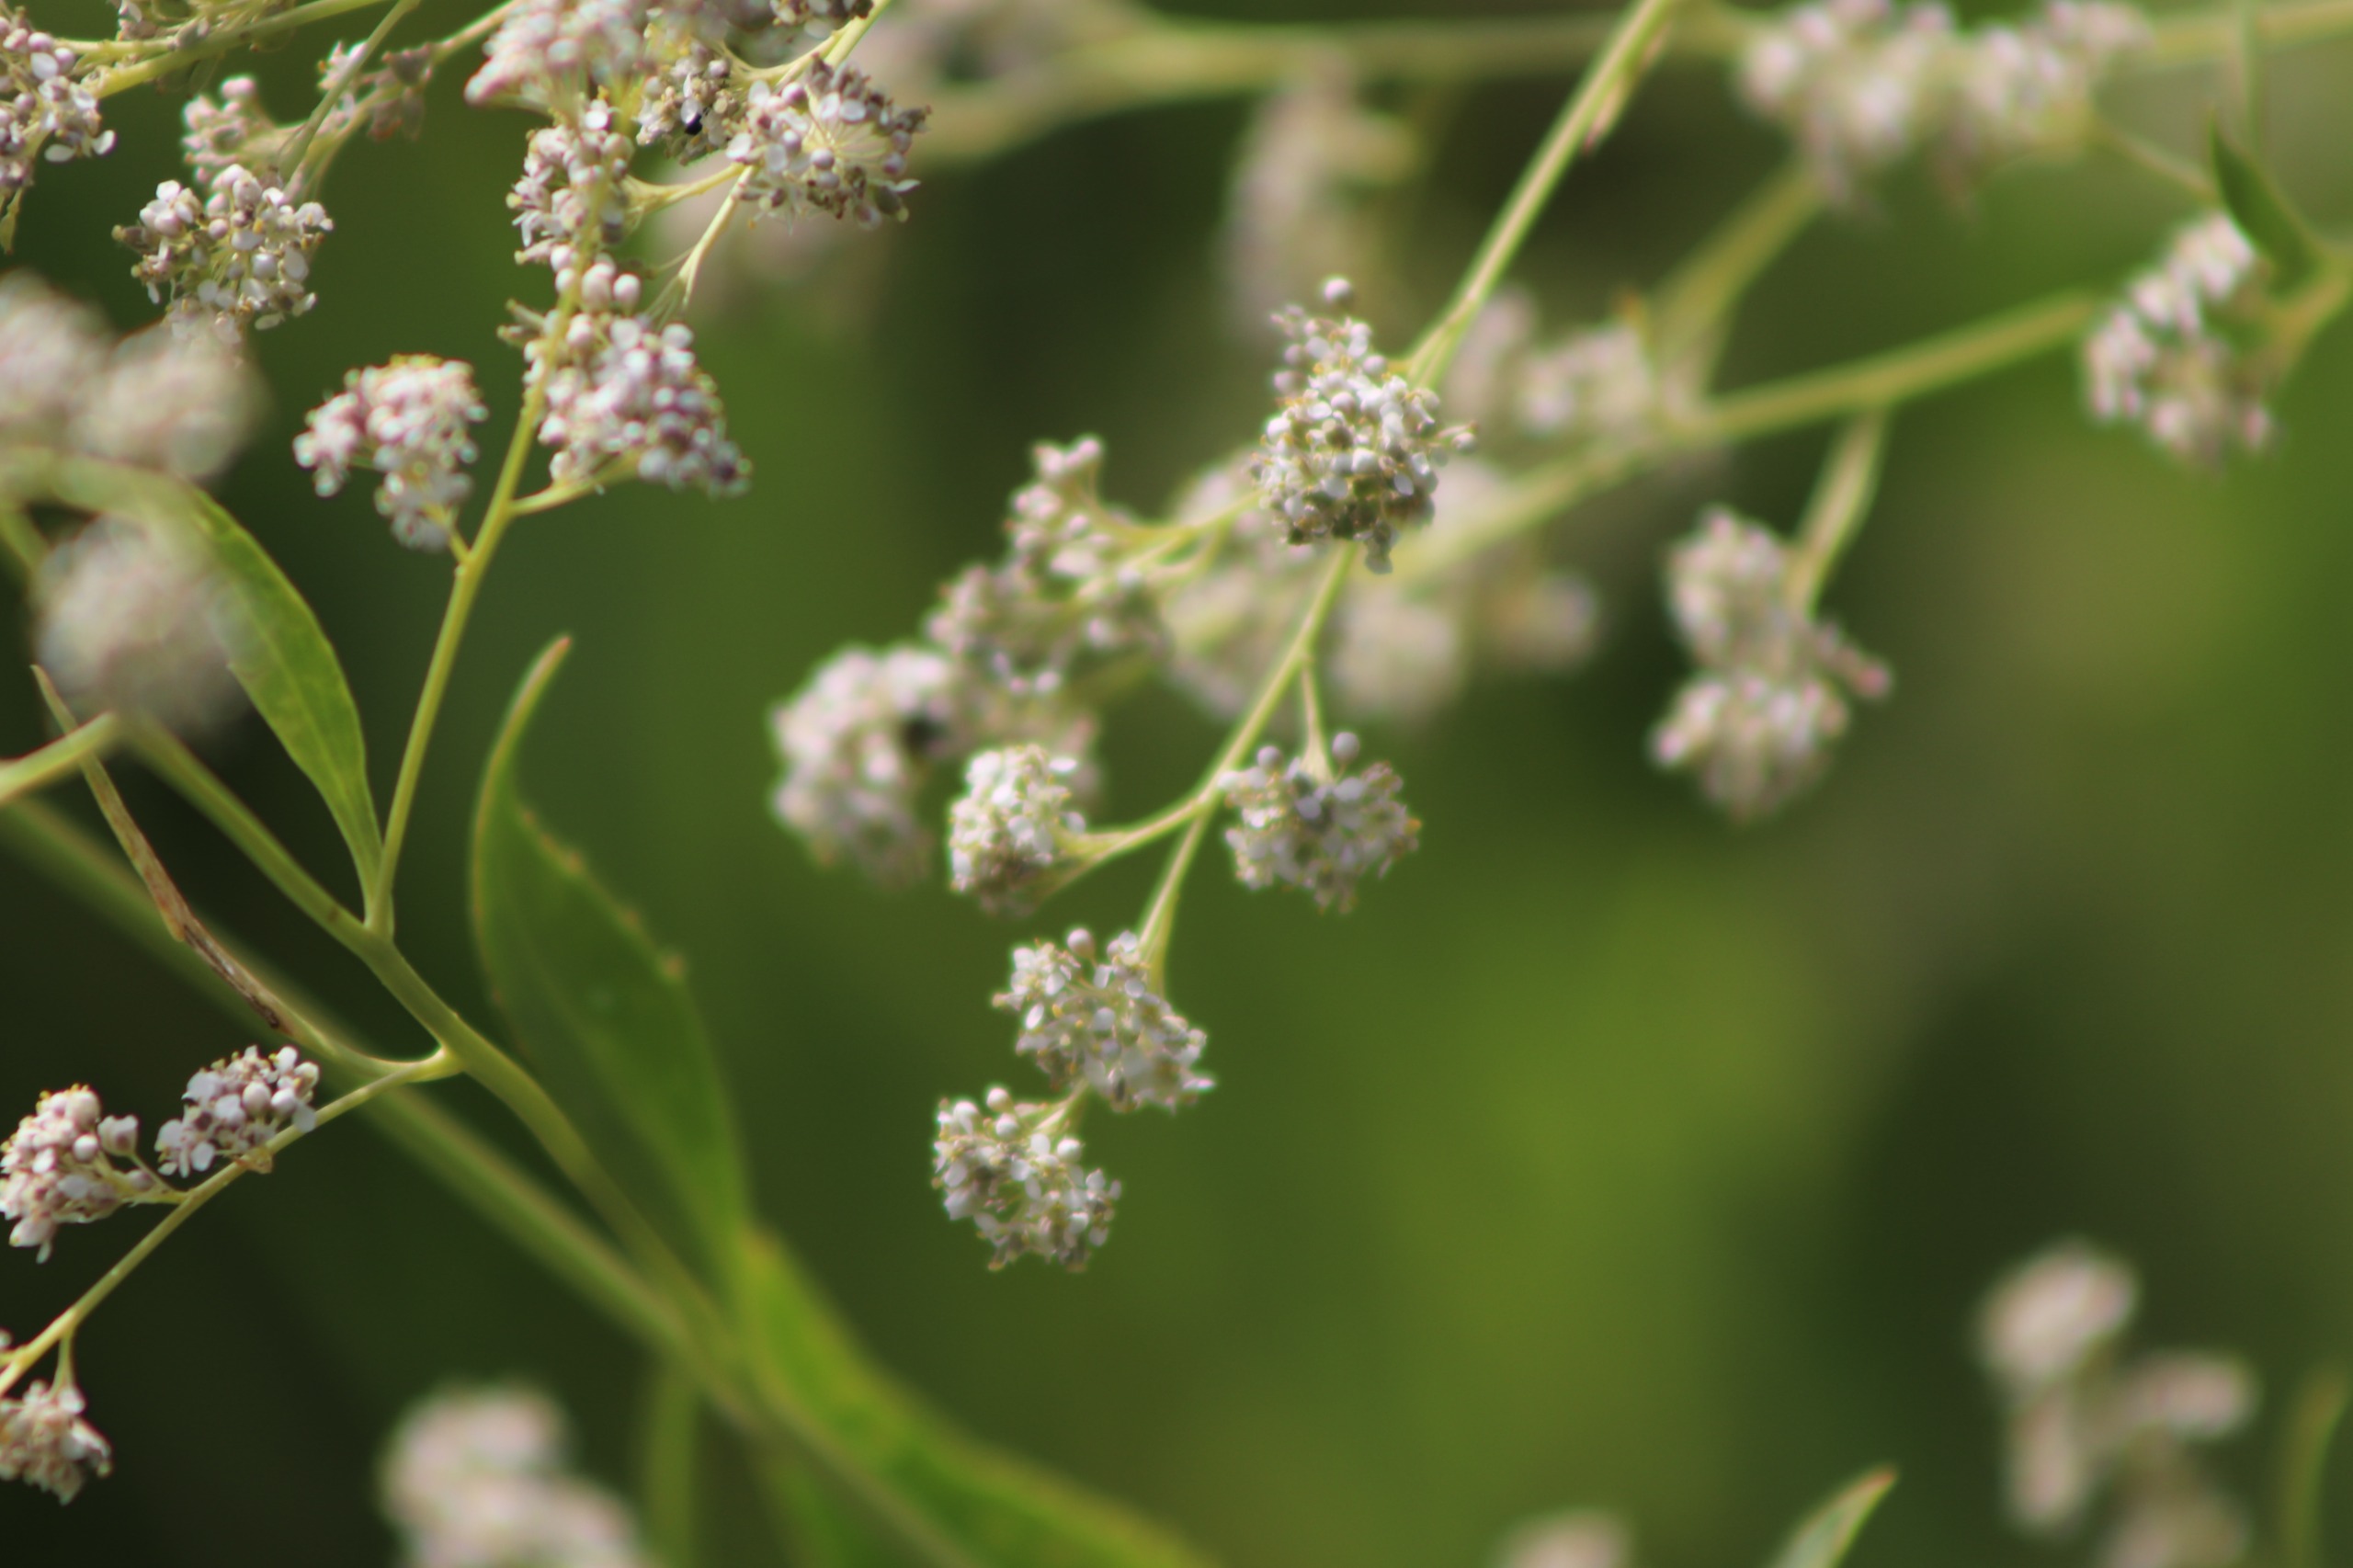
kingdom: Plantae
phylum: Tracheophyta
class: Magnoliopsida
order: Brassicales
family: Brassicaceae
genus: Lepidium
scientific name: Lepidium latifolium
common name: Strand-karse
